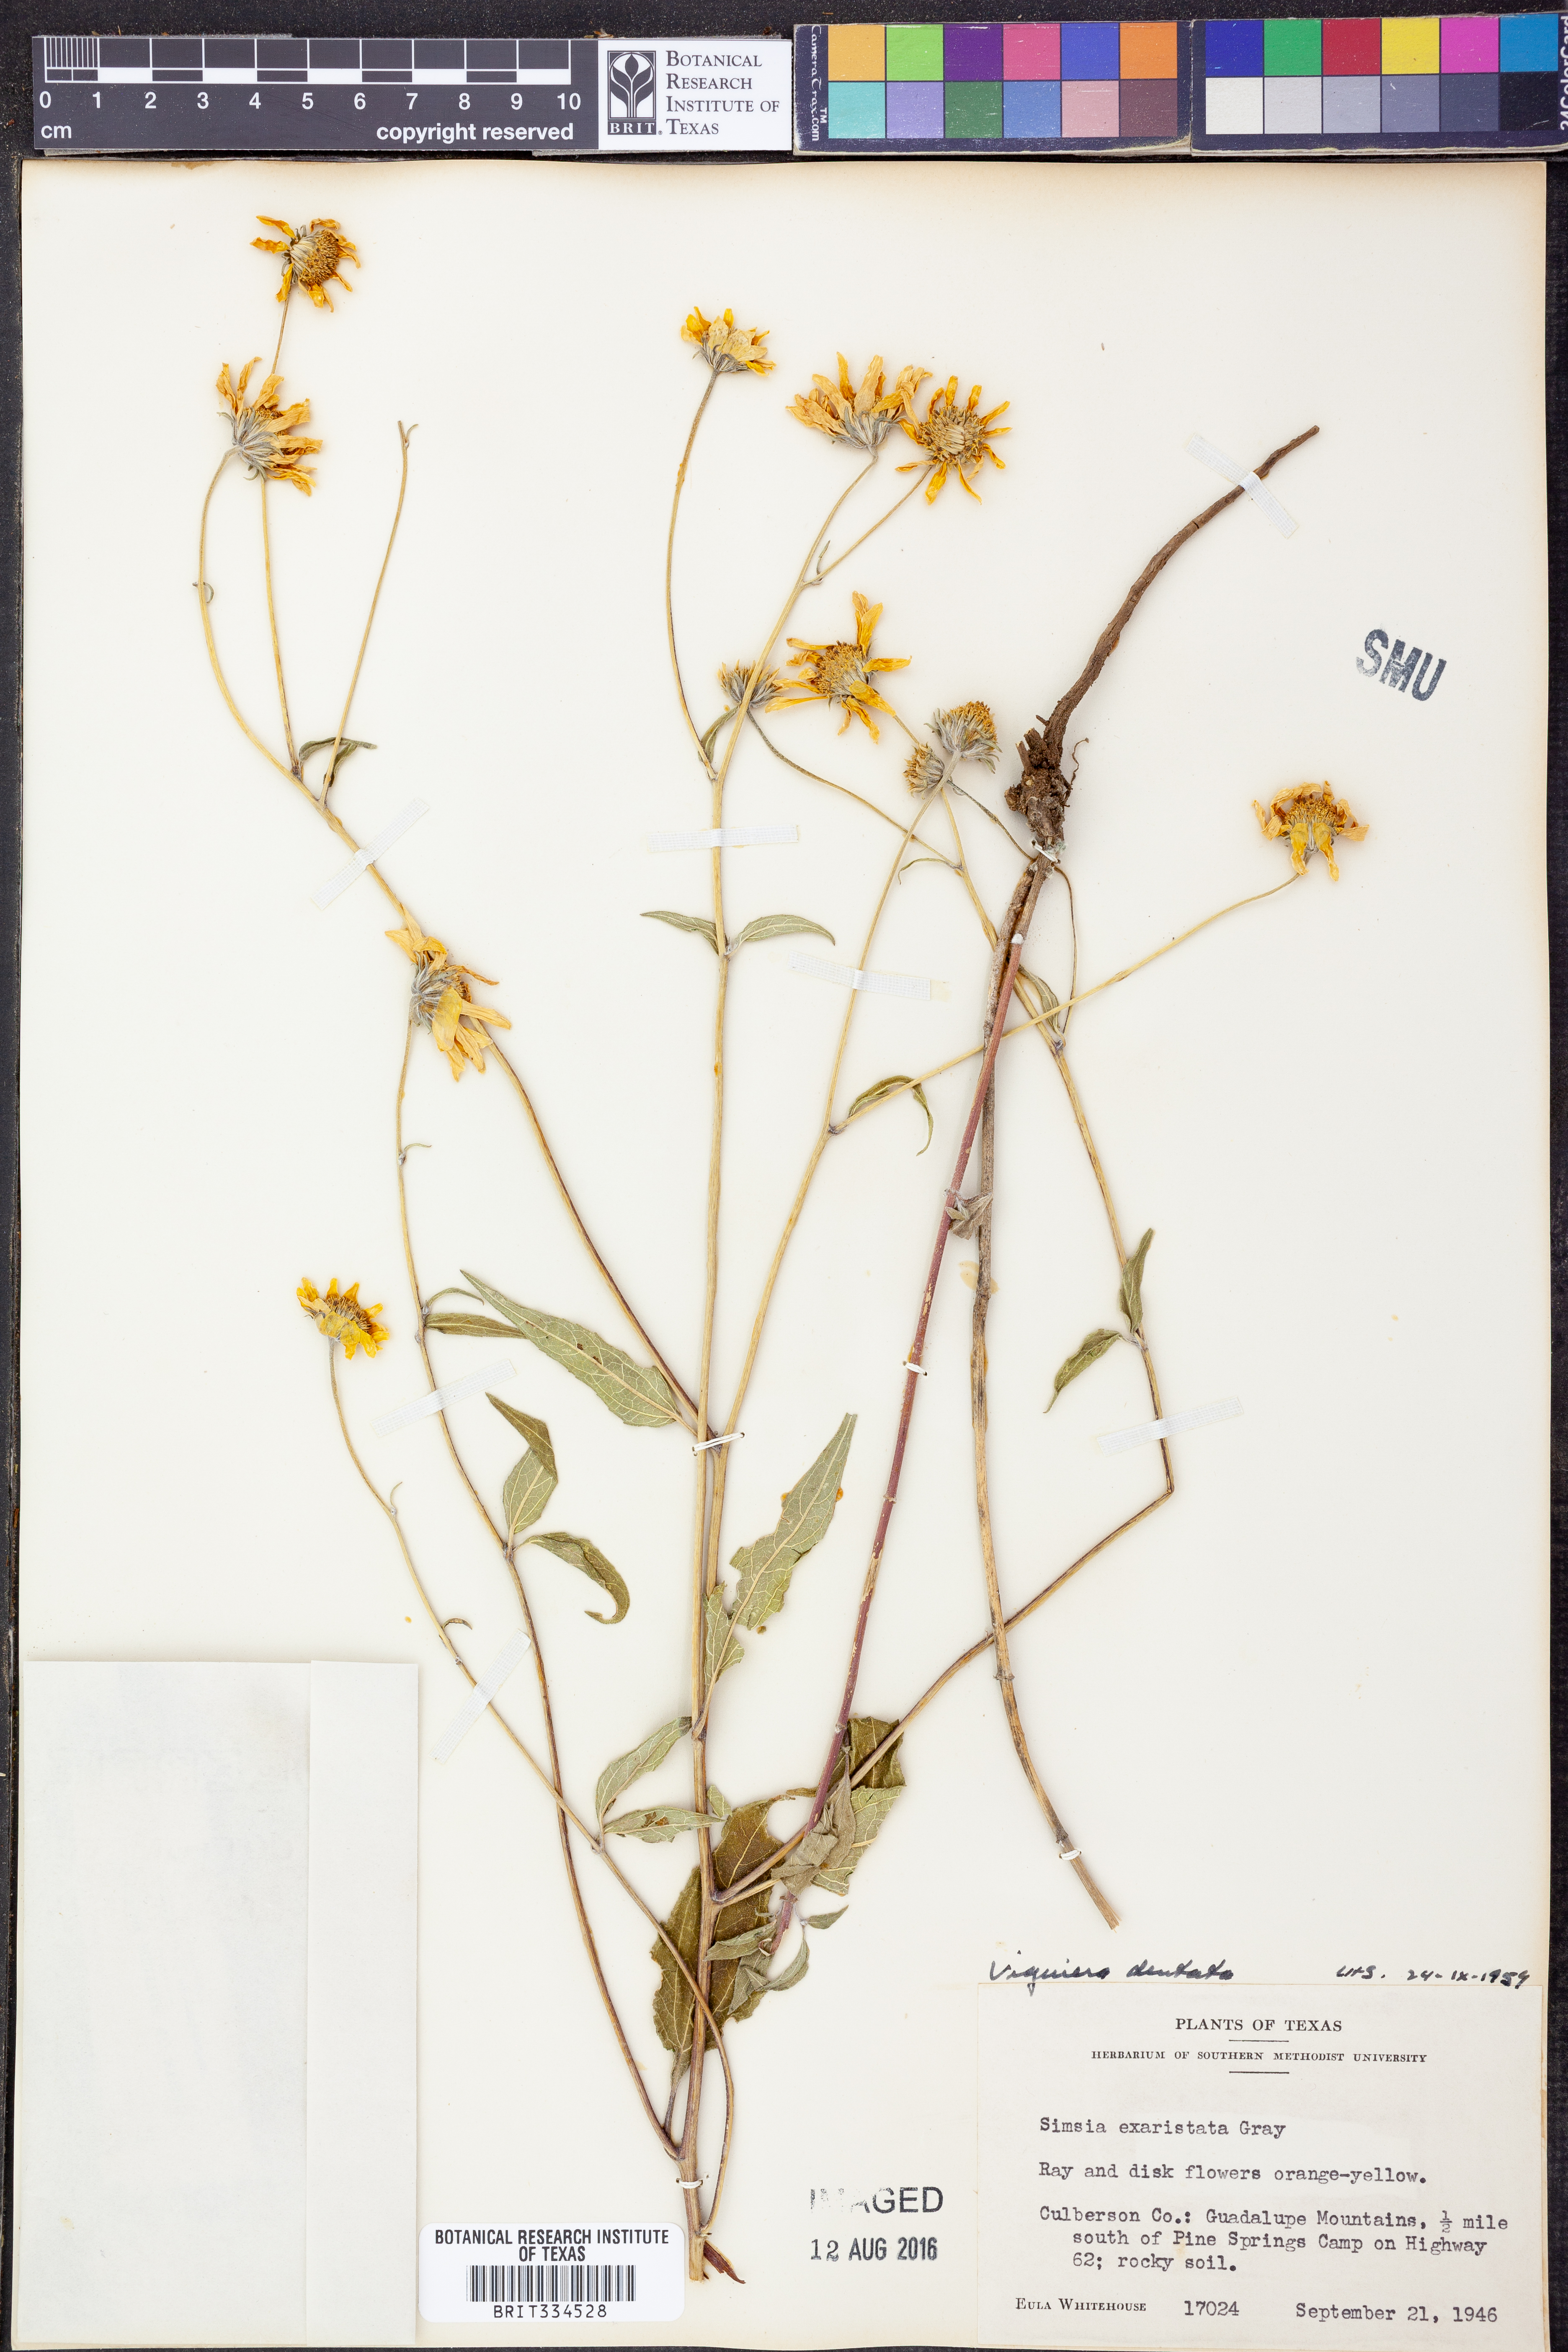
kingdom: Plantae
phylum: Tracheophyta
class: Magnoliopsida
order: Asterales
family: Asteraceae
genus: Viguiera
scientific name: Viguiera dentata
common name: Toothleaf
